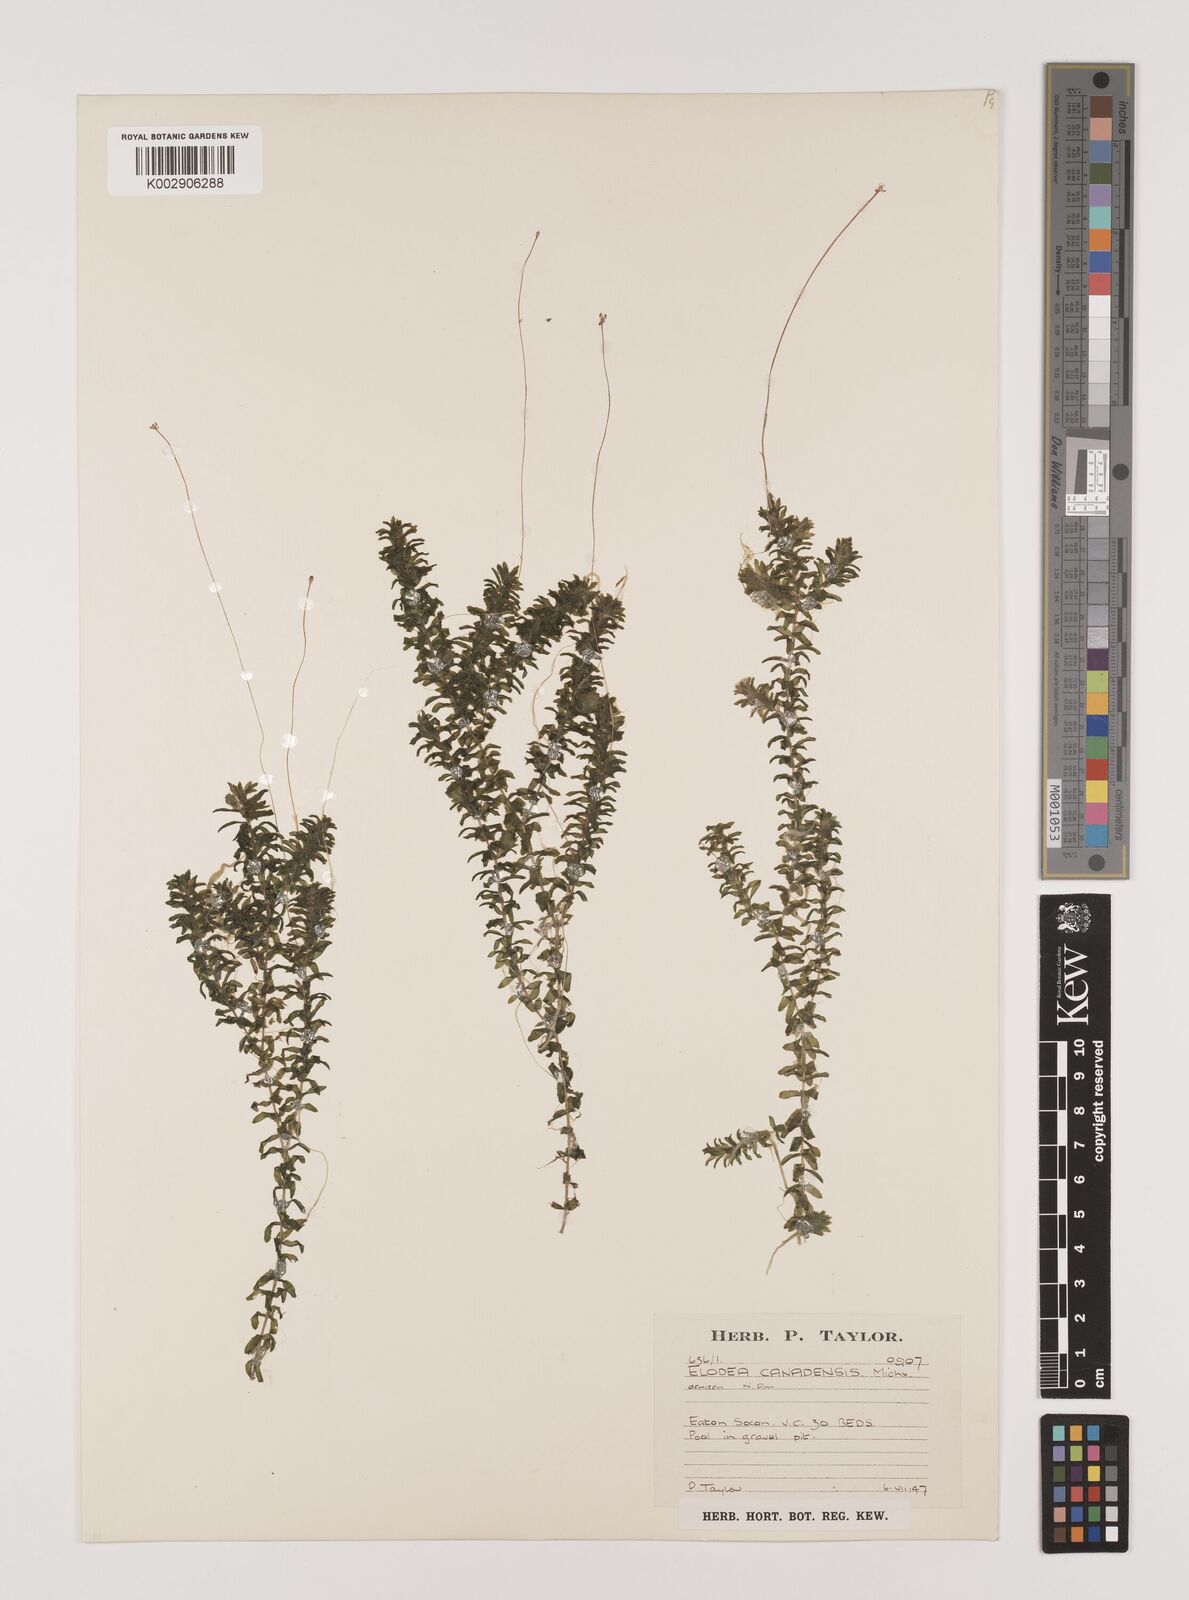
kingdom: Plantae
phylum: Tracheophyta
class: Liliopsida
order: Alismatales
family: Hydrocharitaceae
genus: Elodea
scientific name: Elodea canadensis
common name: Canadian waterweed
